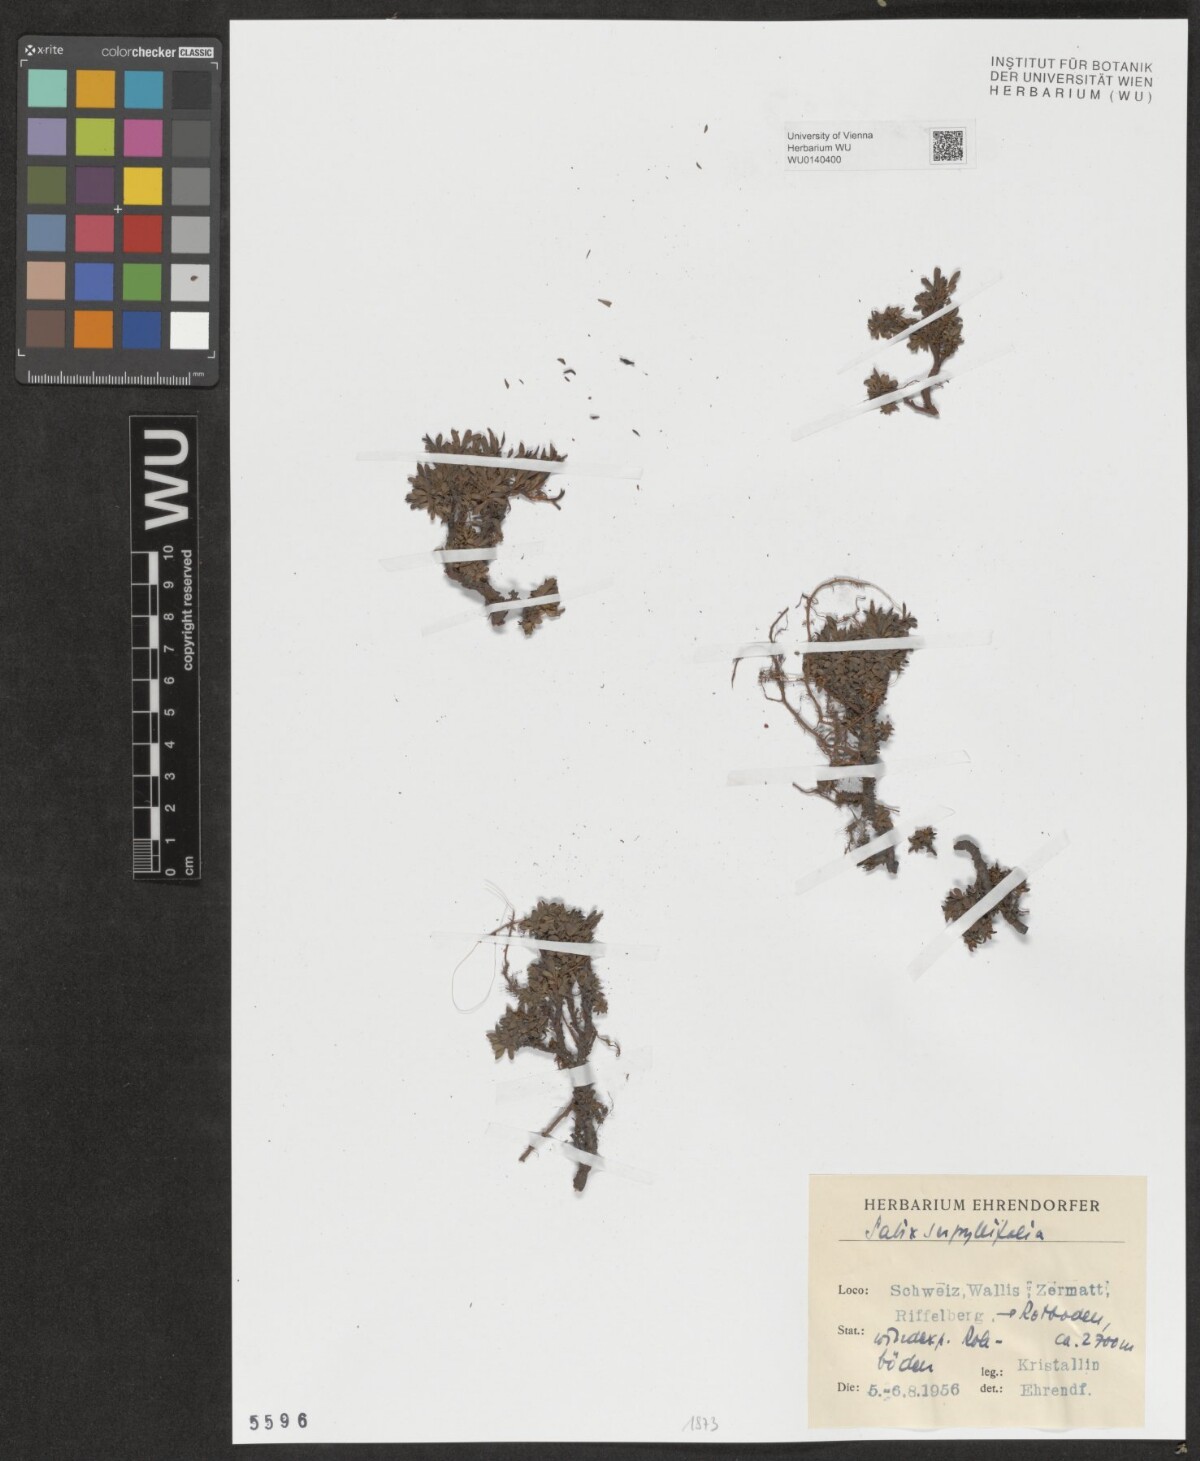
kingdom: Plantae
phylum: Tracheophyta
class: Magnoliopsida
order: Malpighiales
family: Salicaceae
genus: Salix
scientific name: Salix serpillifolia
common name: Thyme-leaf willow
